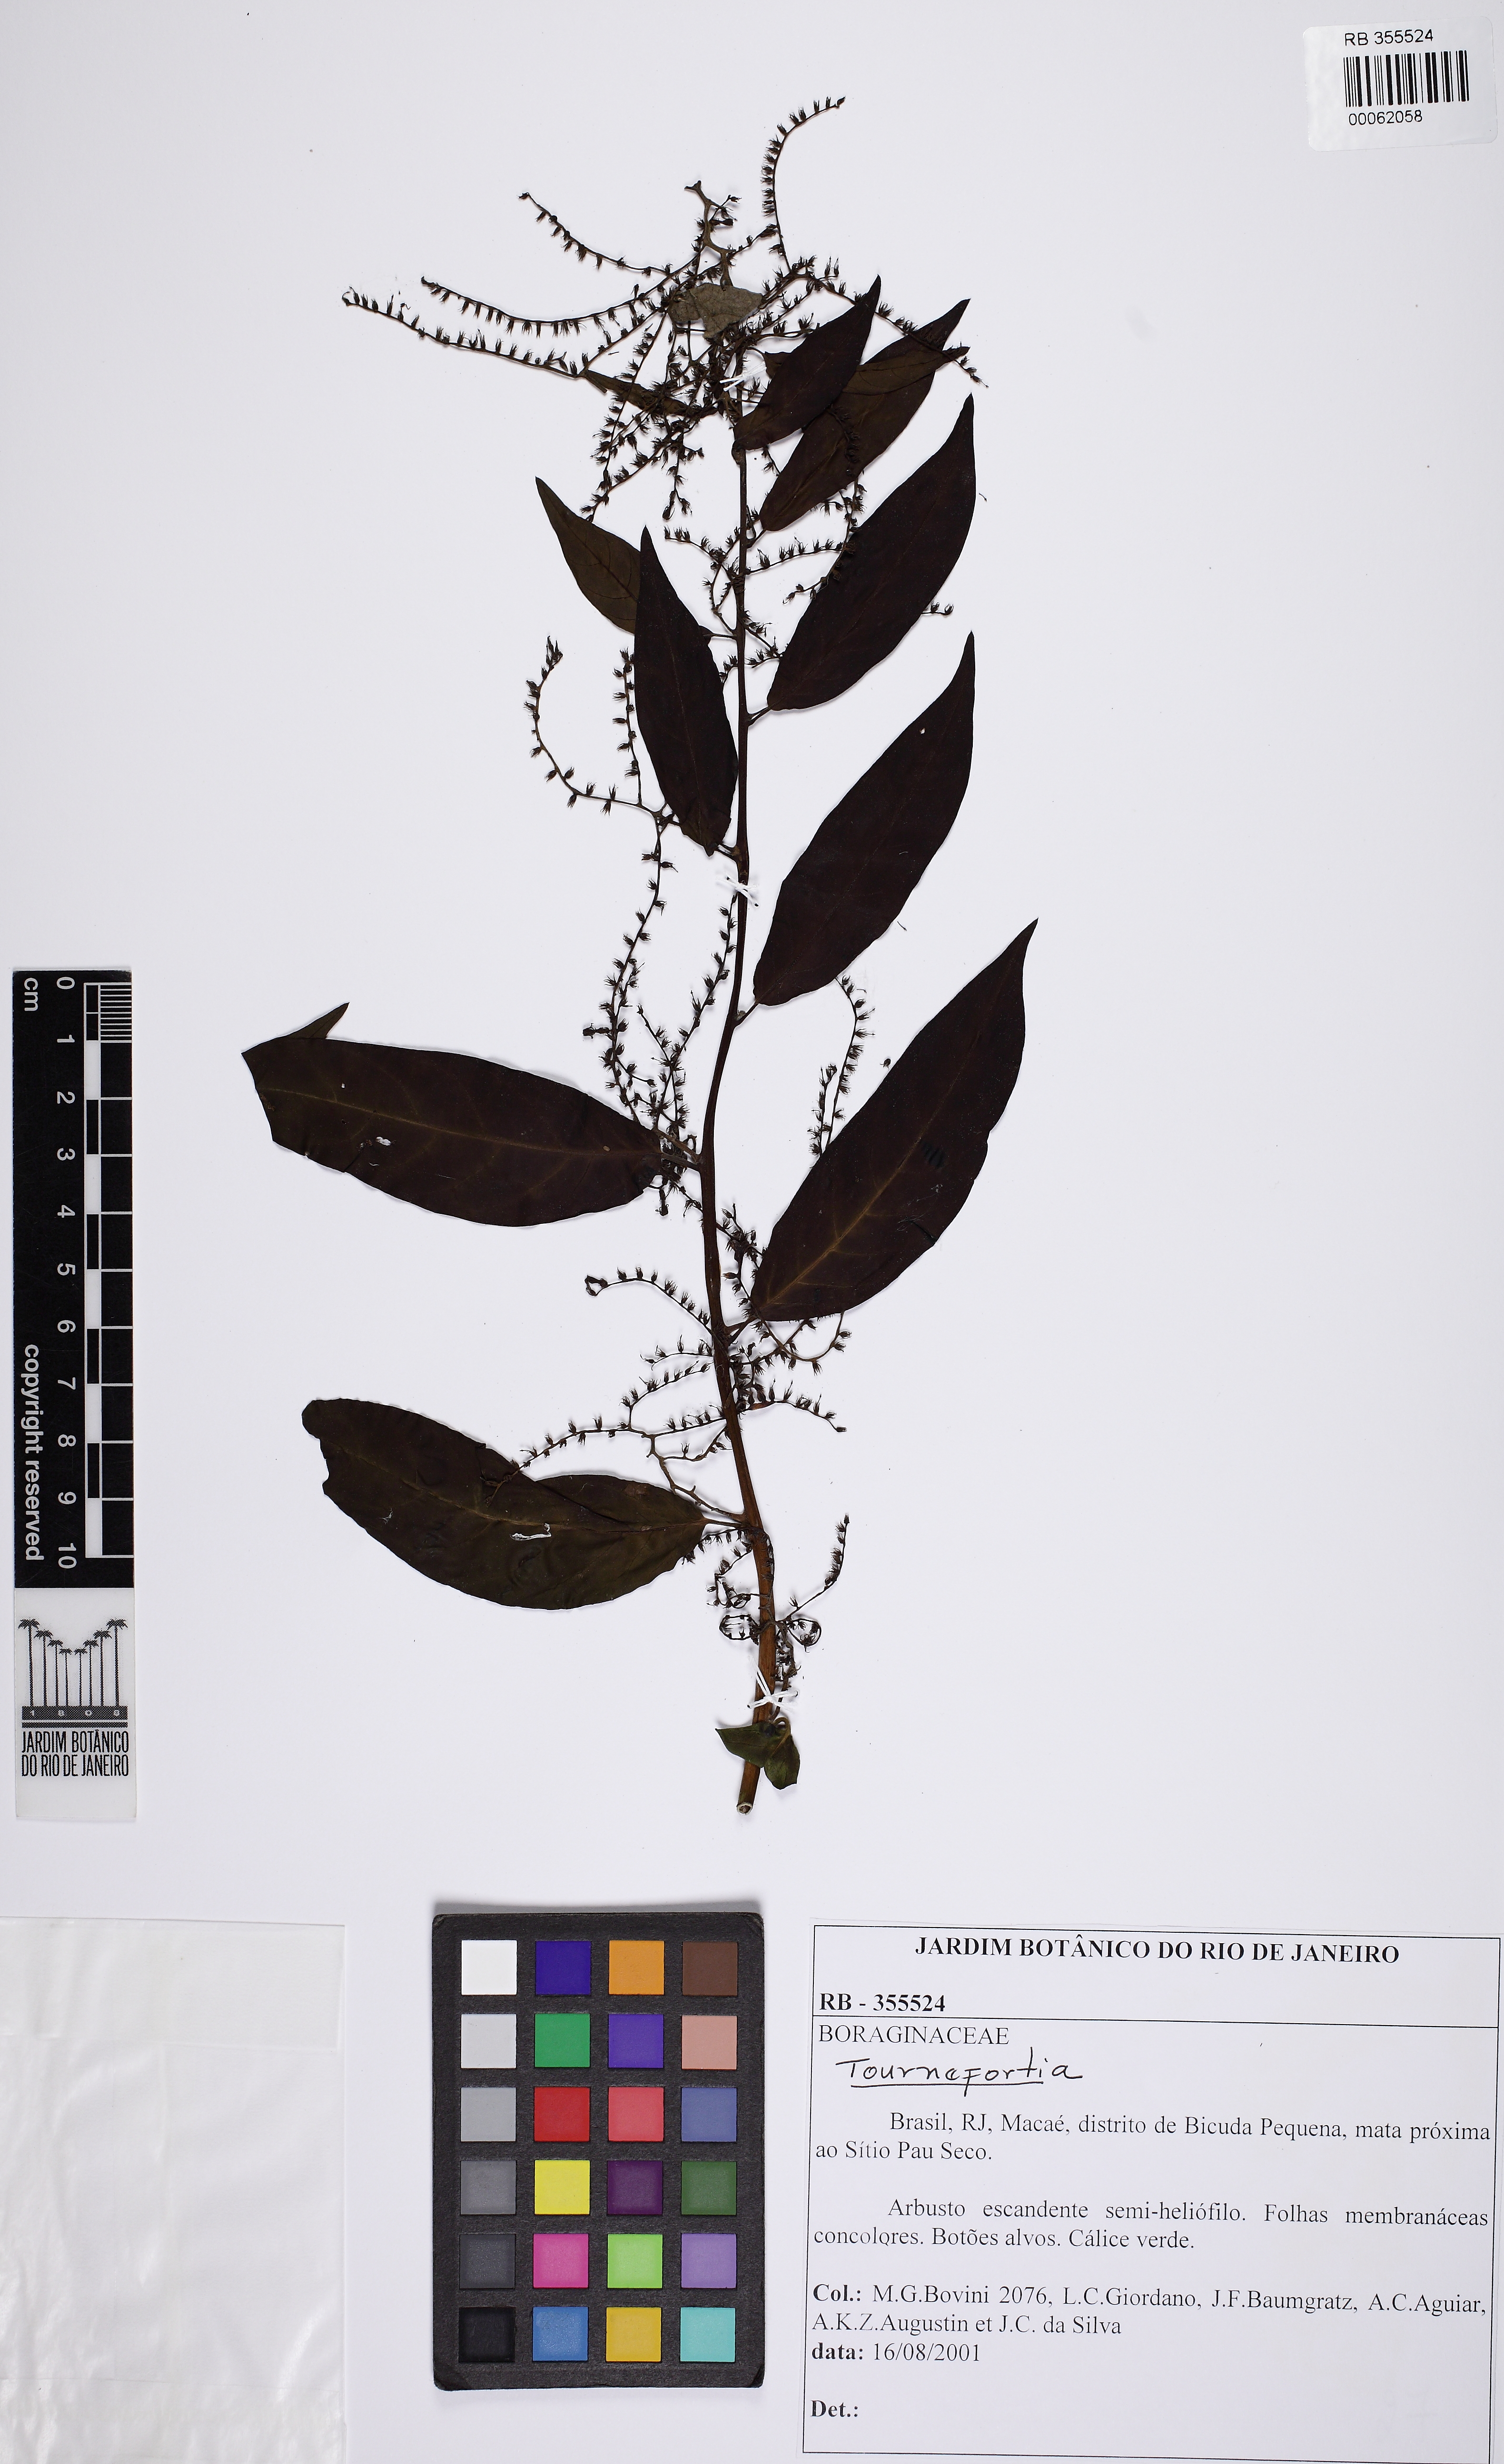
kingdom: Plantae
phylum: Tracheophyta
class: Magnoliopsida
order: Boraginales
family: Heliotropiaceae
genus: Myriopus
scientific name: Myriopus breviflorus
